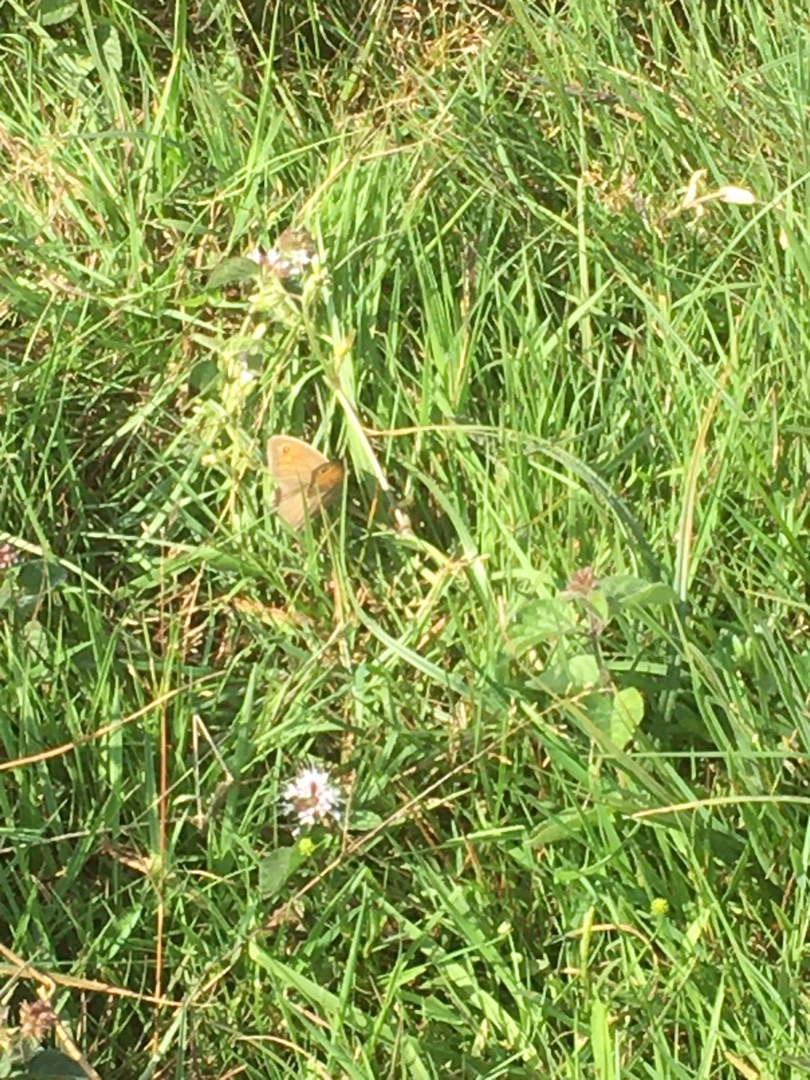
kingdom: Animalia
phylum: Arthropoda
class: Insecta
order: Lepidoptera
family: Nymphalidae
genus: Maniola
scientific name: Maniola jurtina
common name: Græsrandøje
